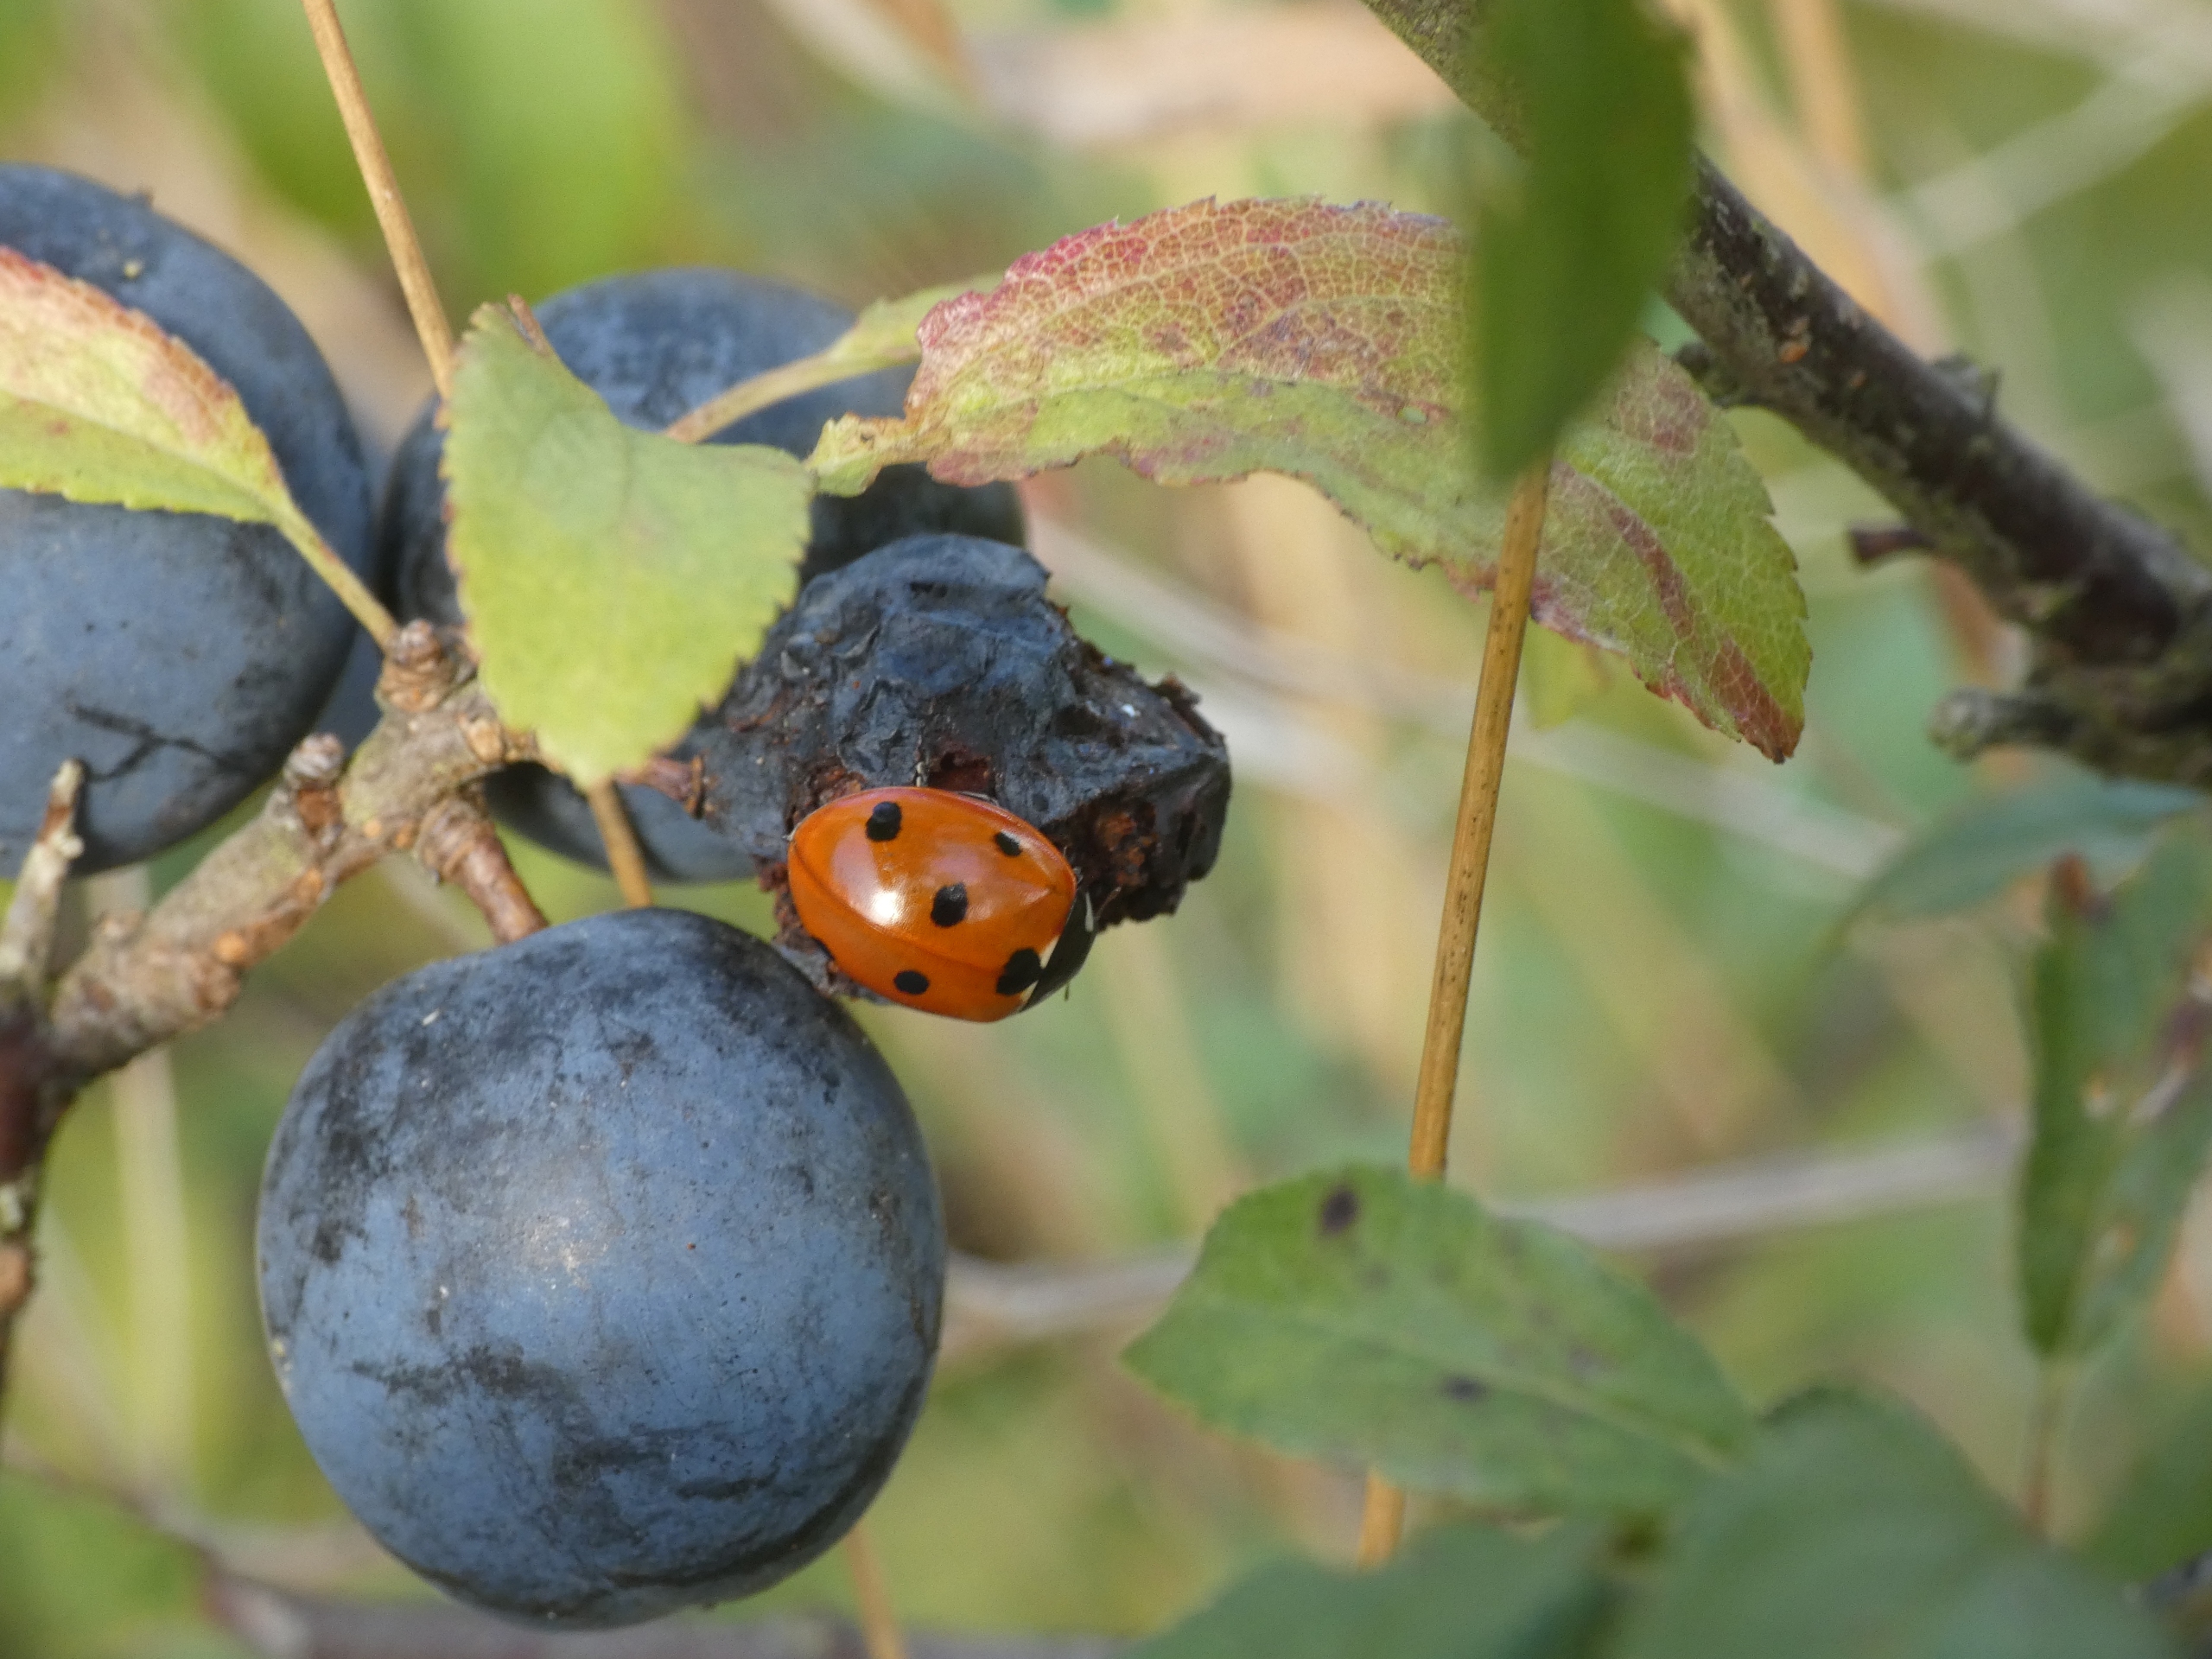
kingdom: Animalia
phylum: Arthropoda
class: Insecta
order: Coleoptera
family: Coccinellidae
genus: Coccinella
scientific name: Coccinella septempunctata
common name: Syvplettet mariehøne
